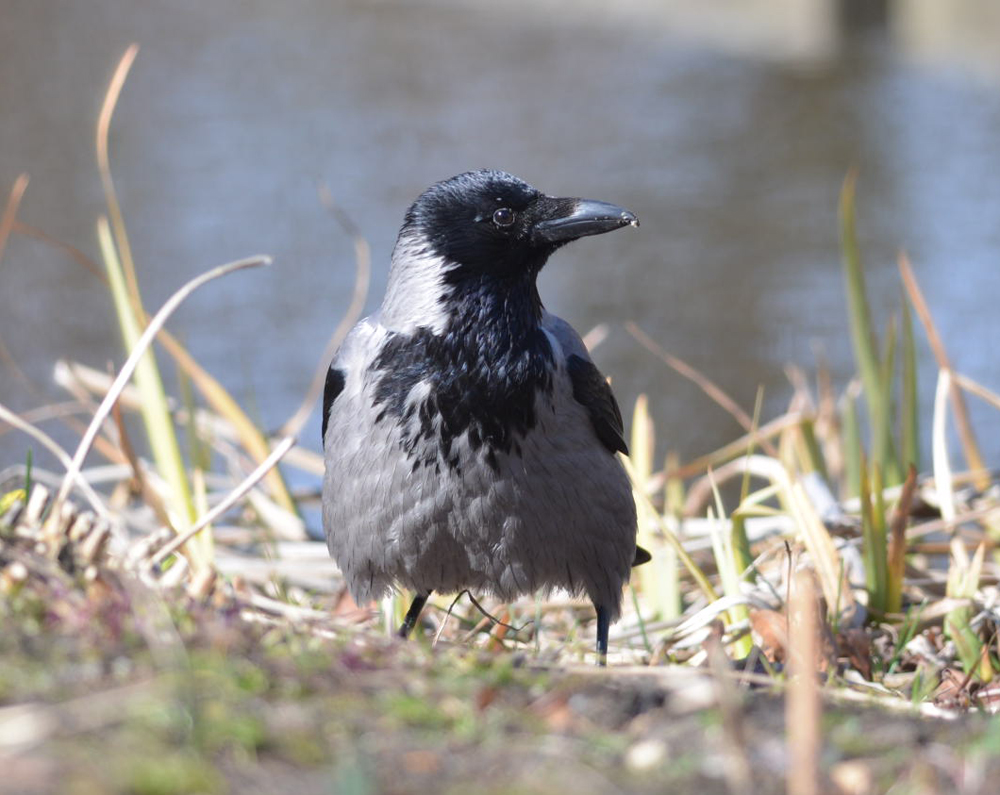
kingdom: Animalia
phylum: Chordata
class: Aves
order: Passeriformes
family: Corvidae
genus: Corvus
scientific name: Corvus cornix
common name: Hooded crow
